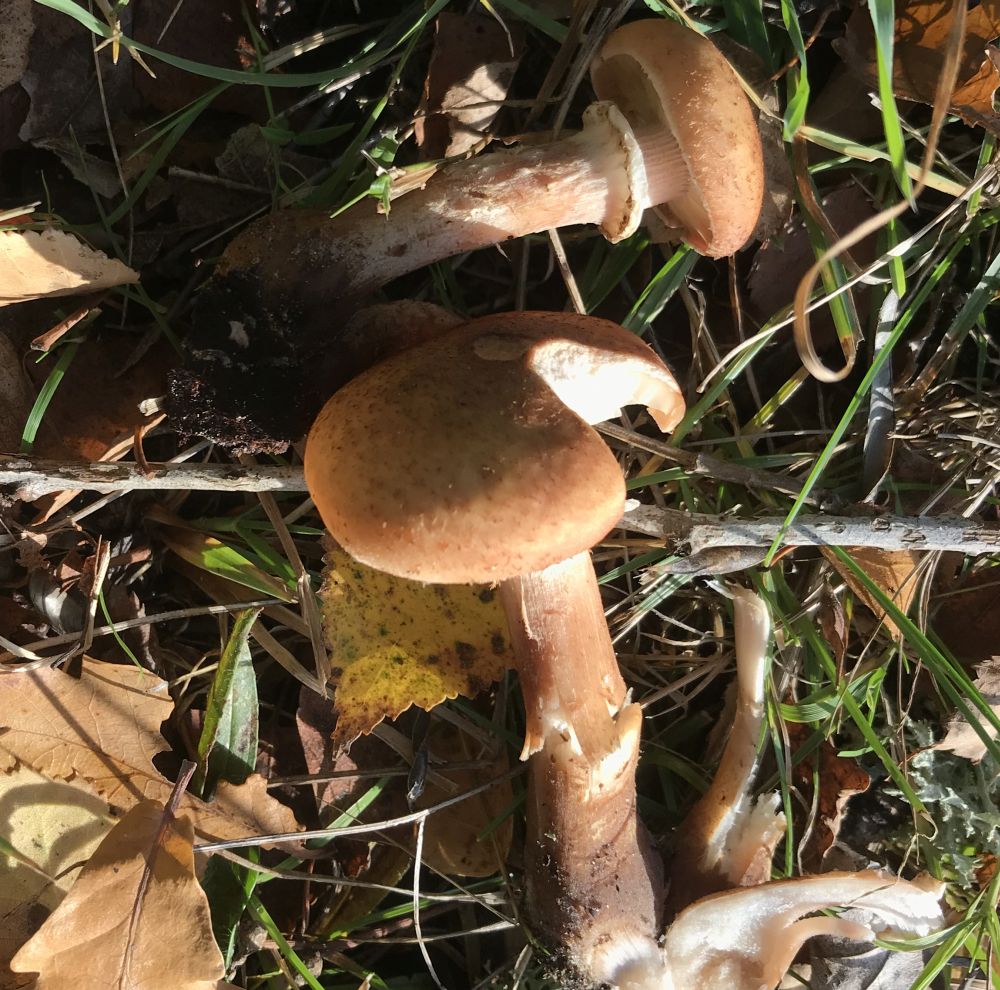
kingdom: Fungi
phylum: Basidiomycota
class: Agaricomycetes
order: Agaricales
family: Physalacriaceae
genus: Armillaria
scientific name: Armillaria lutea
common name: køllestokket honningsvamp
